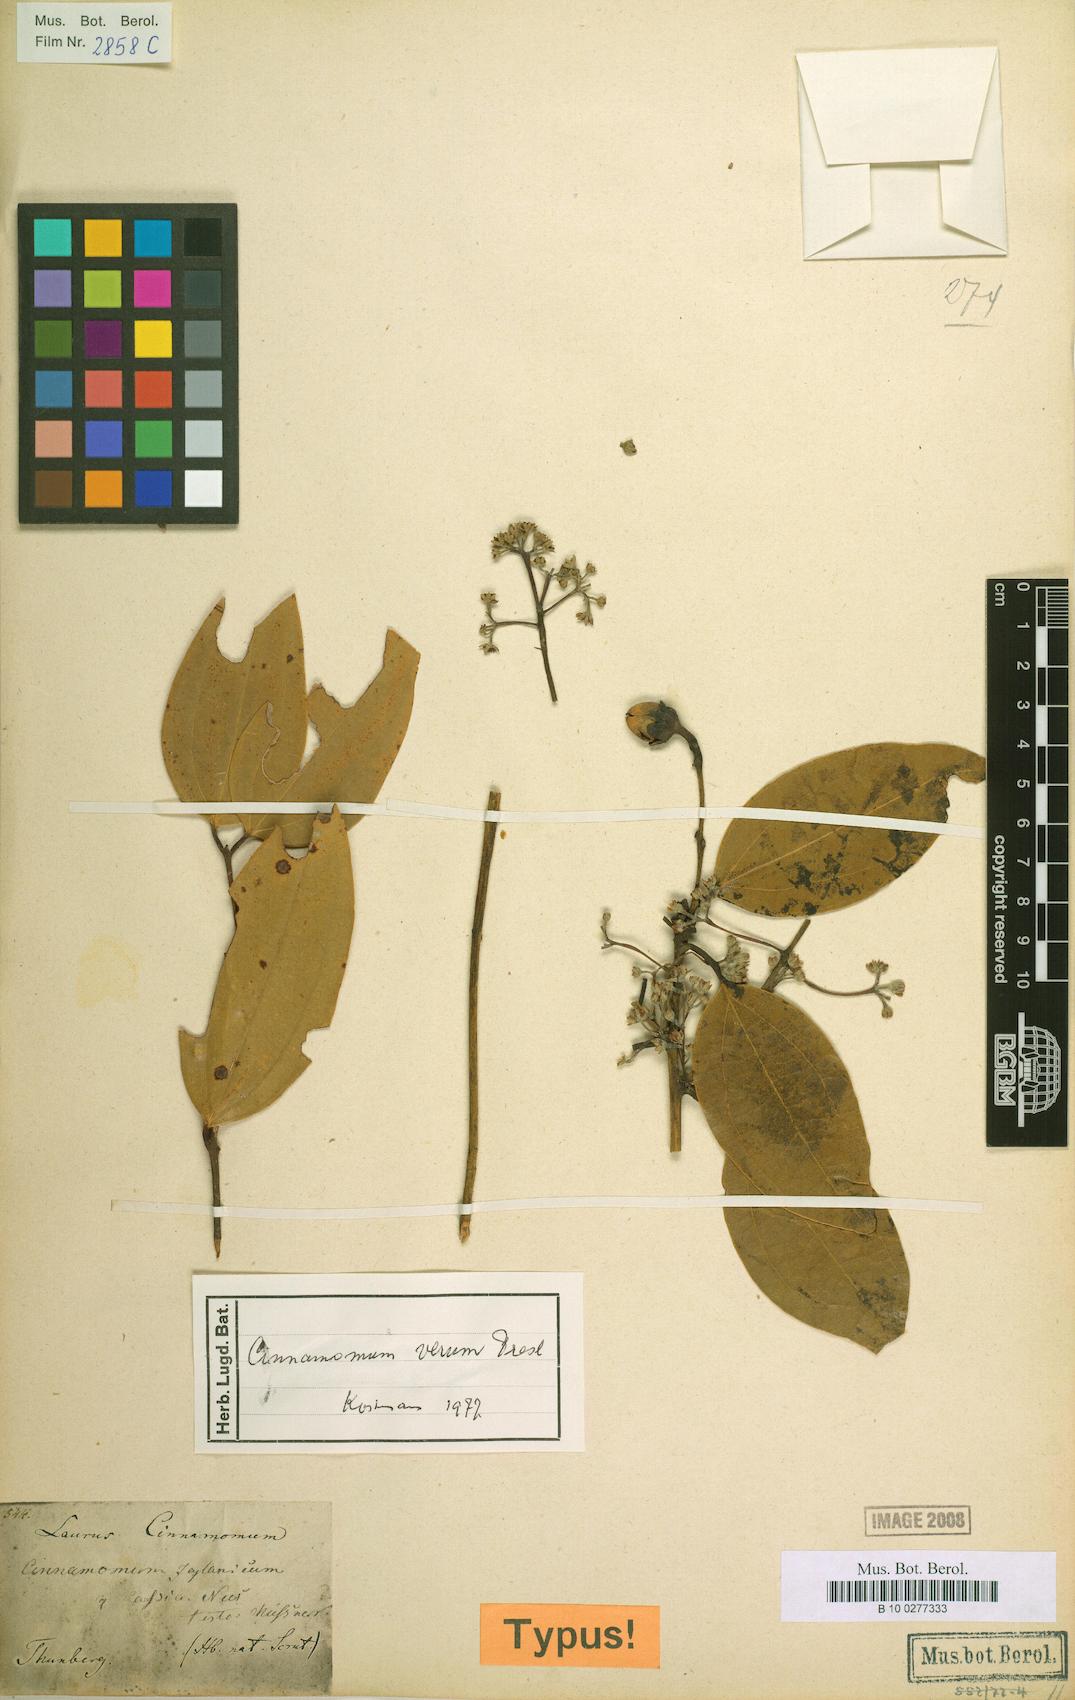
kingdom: Plantae
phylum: Tracheophyta
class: Magnoliopsida
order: Laurales
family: Lauraceae
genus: Cinnamomum
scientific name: Cinnamomum verum
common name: Cinnamon
